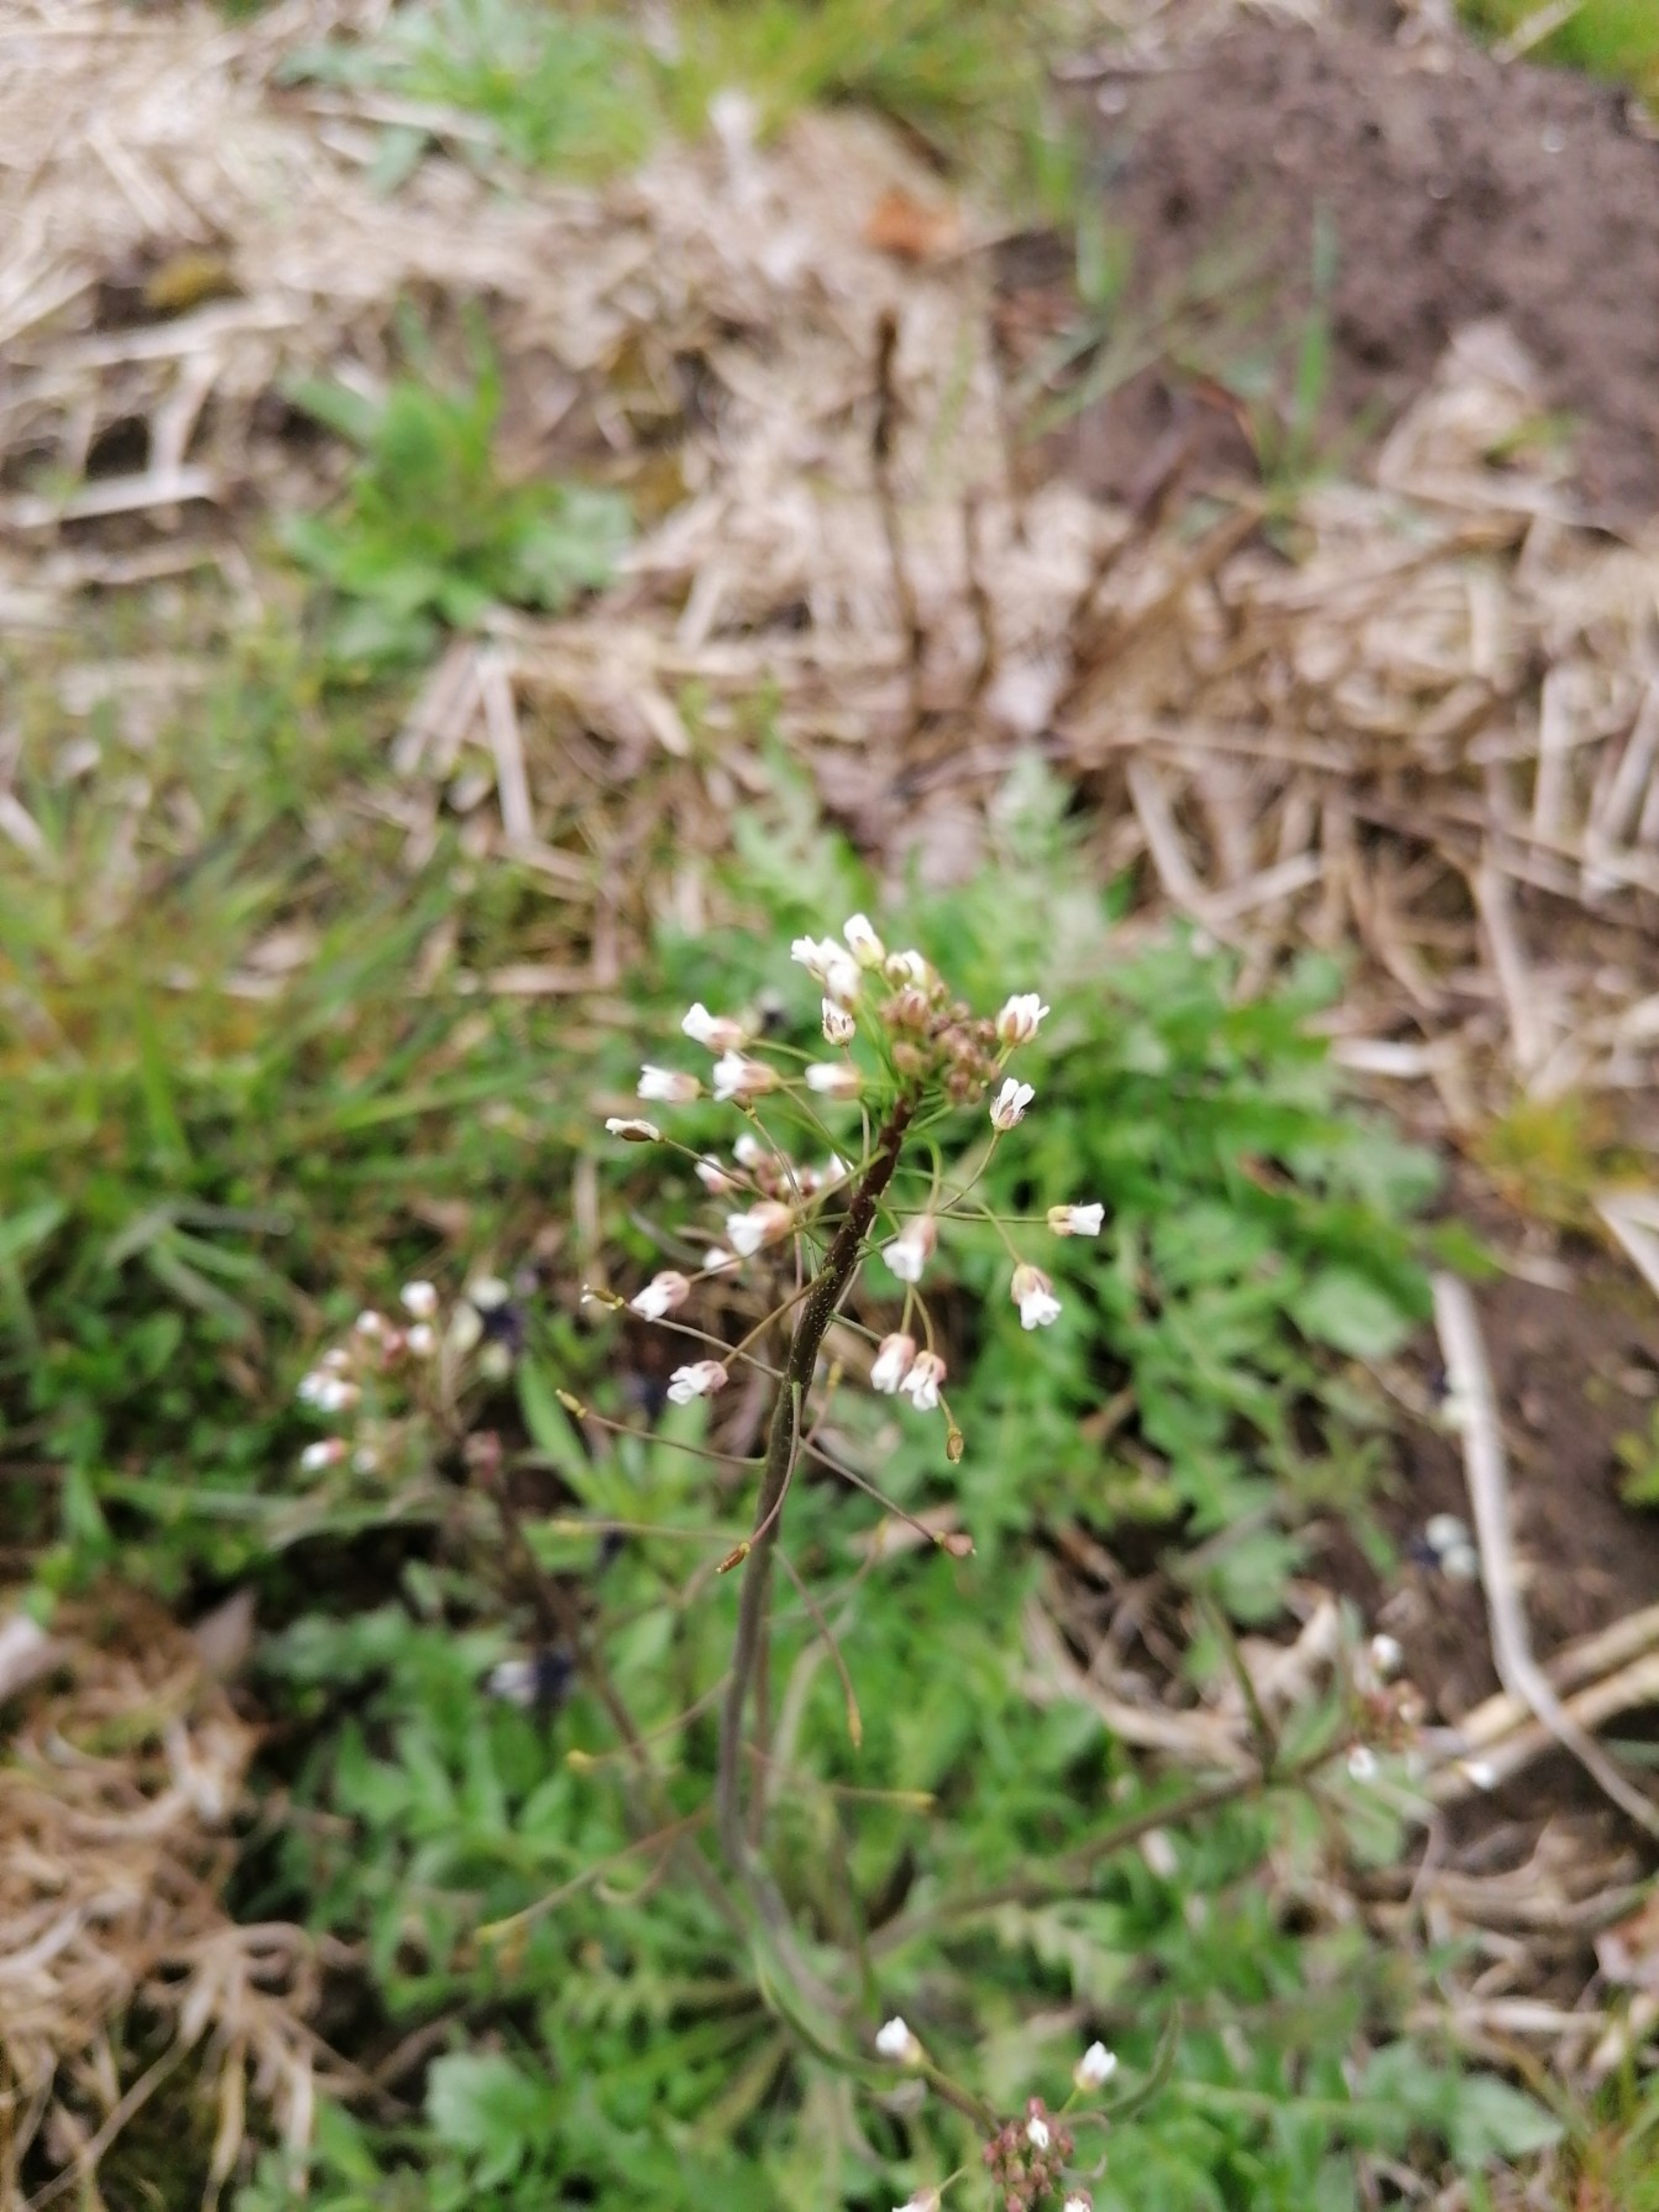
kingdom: Plantae
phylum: Tracheophyta
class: Magnoliopsida
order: Brassicales
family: Brassicaceae
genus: Capsella
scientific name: Capsella bursa-pastoris
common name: Hyrdetaske
